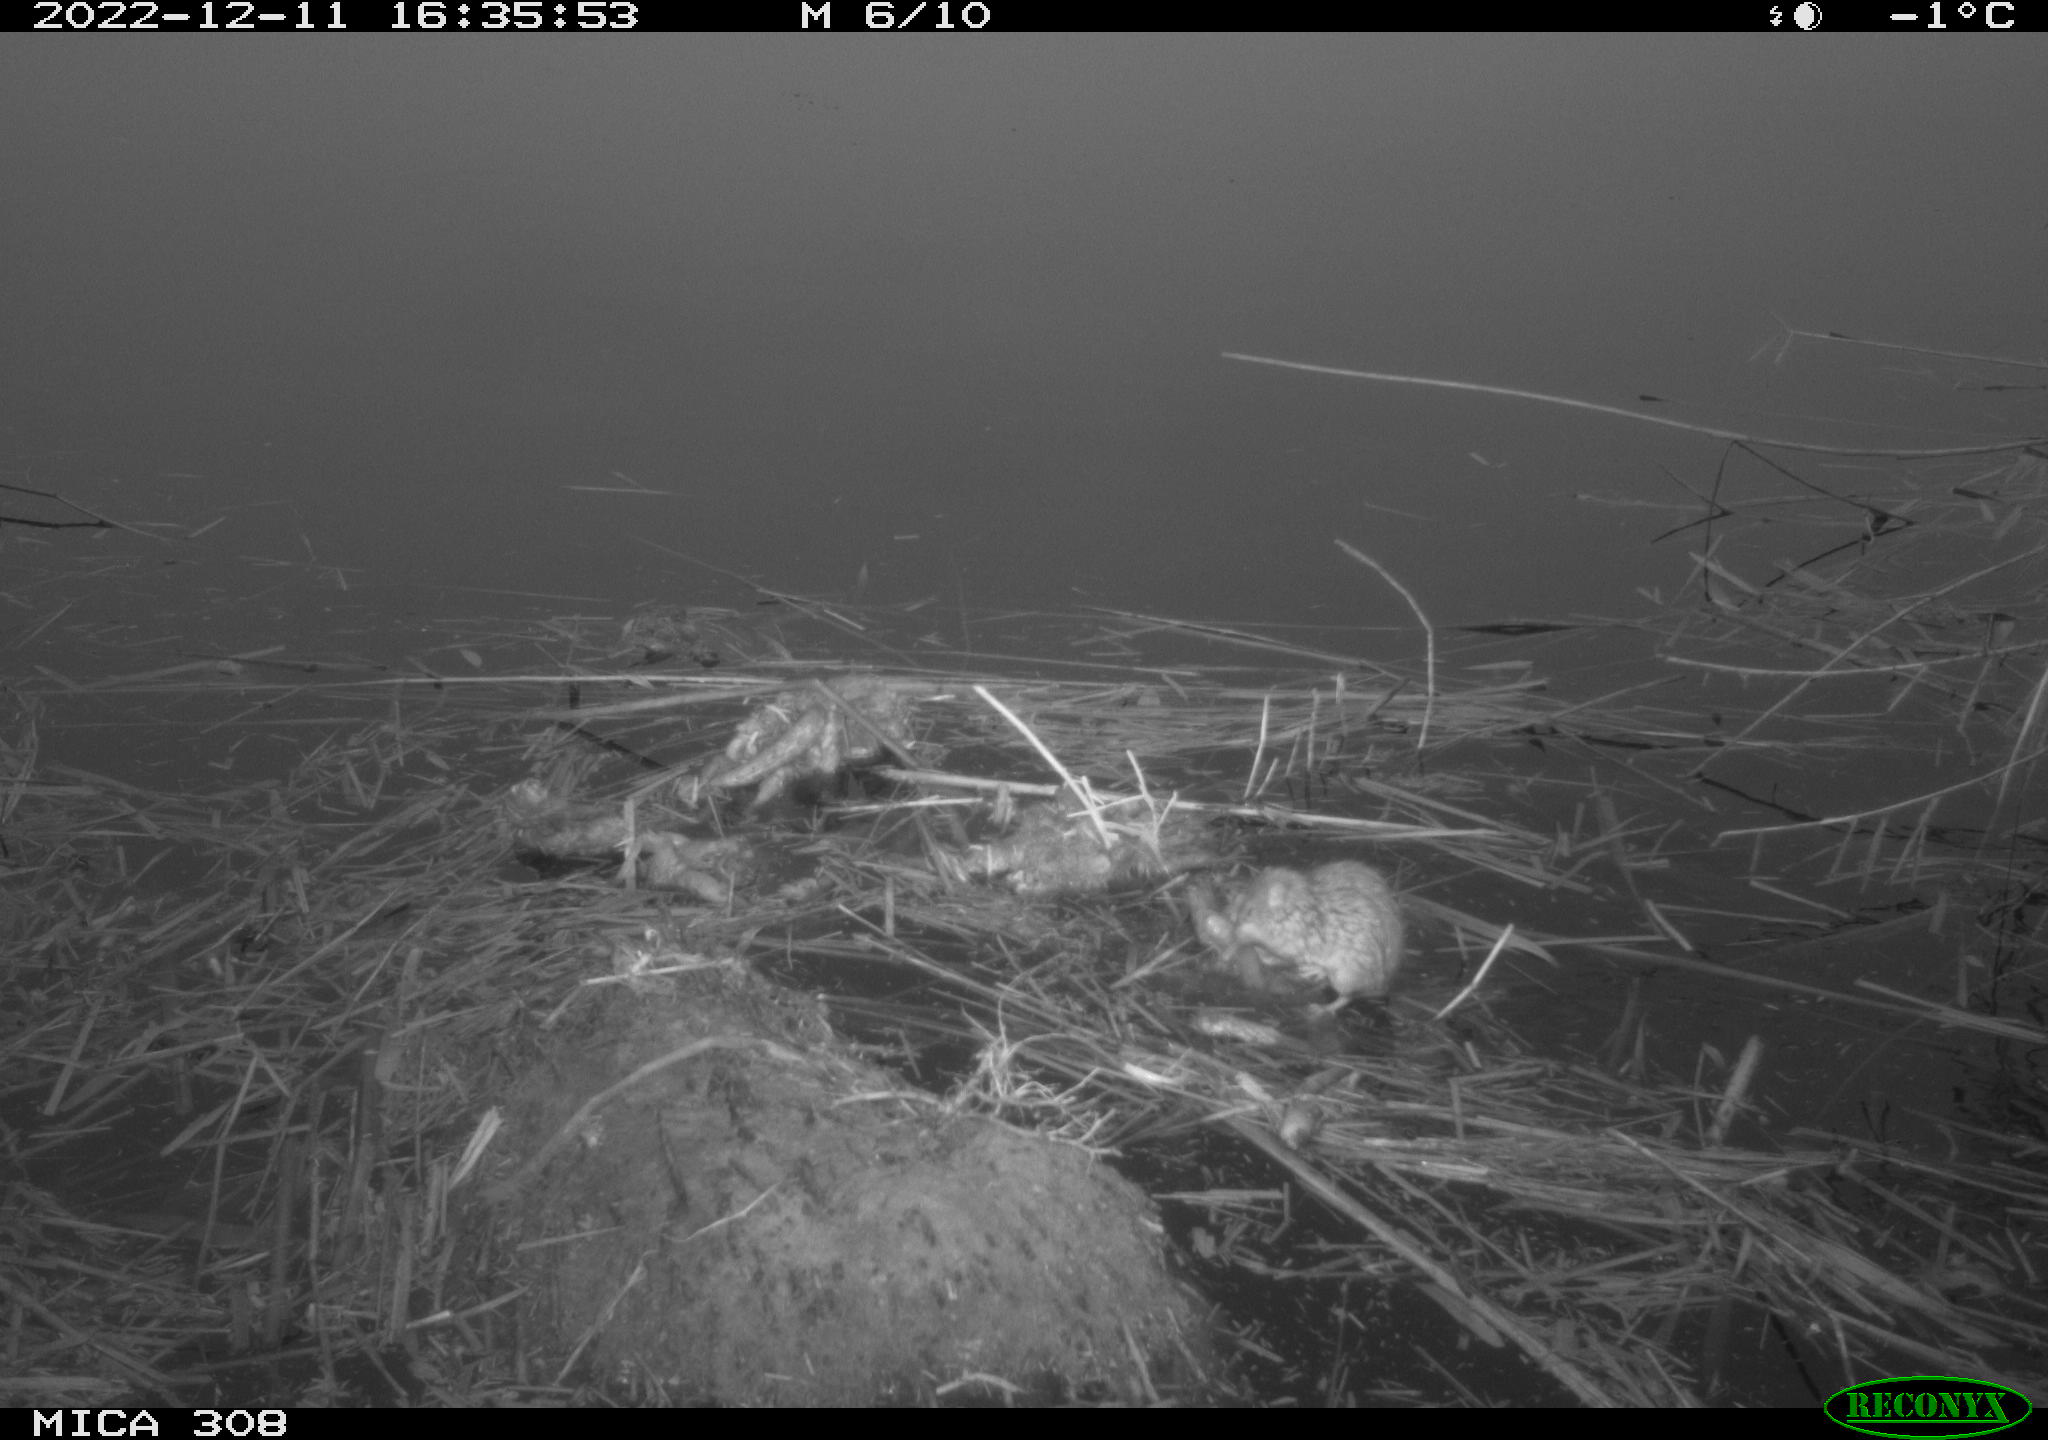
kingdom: Animalia
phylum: Chordata
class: Mammalia
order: Rodentia
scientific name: Rodentia
